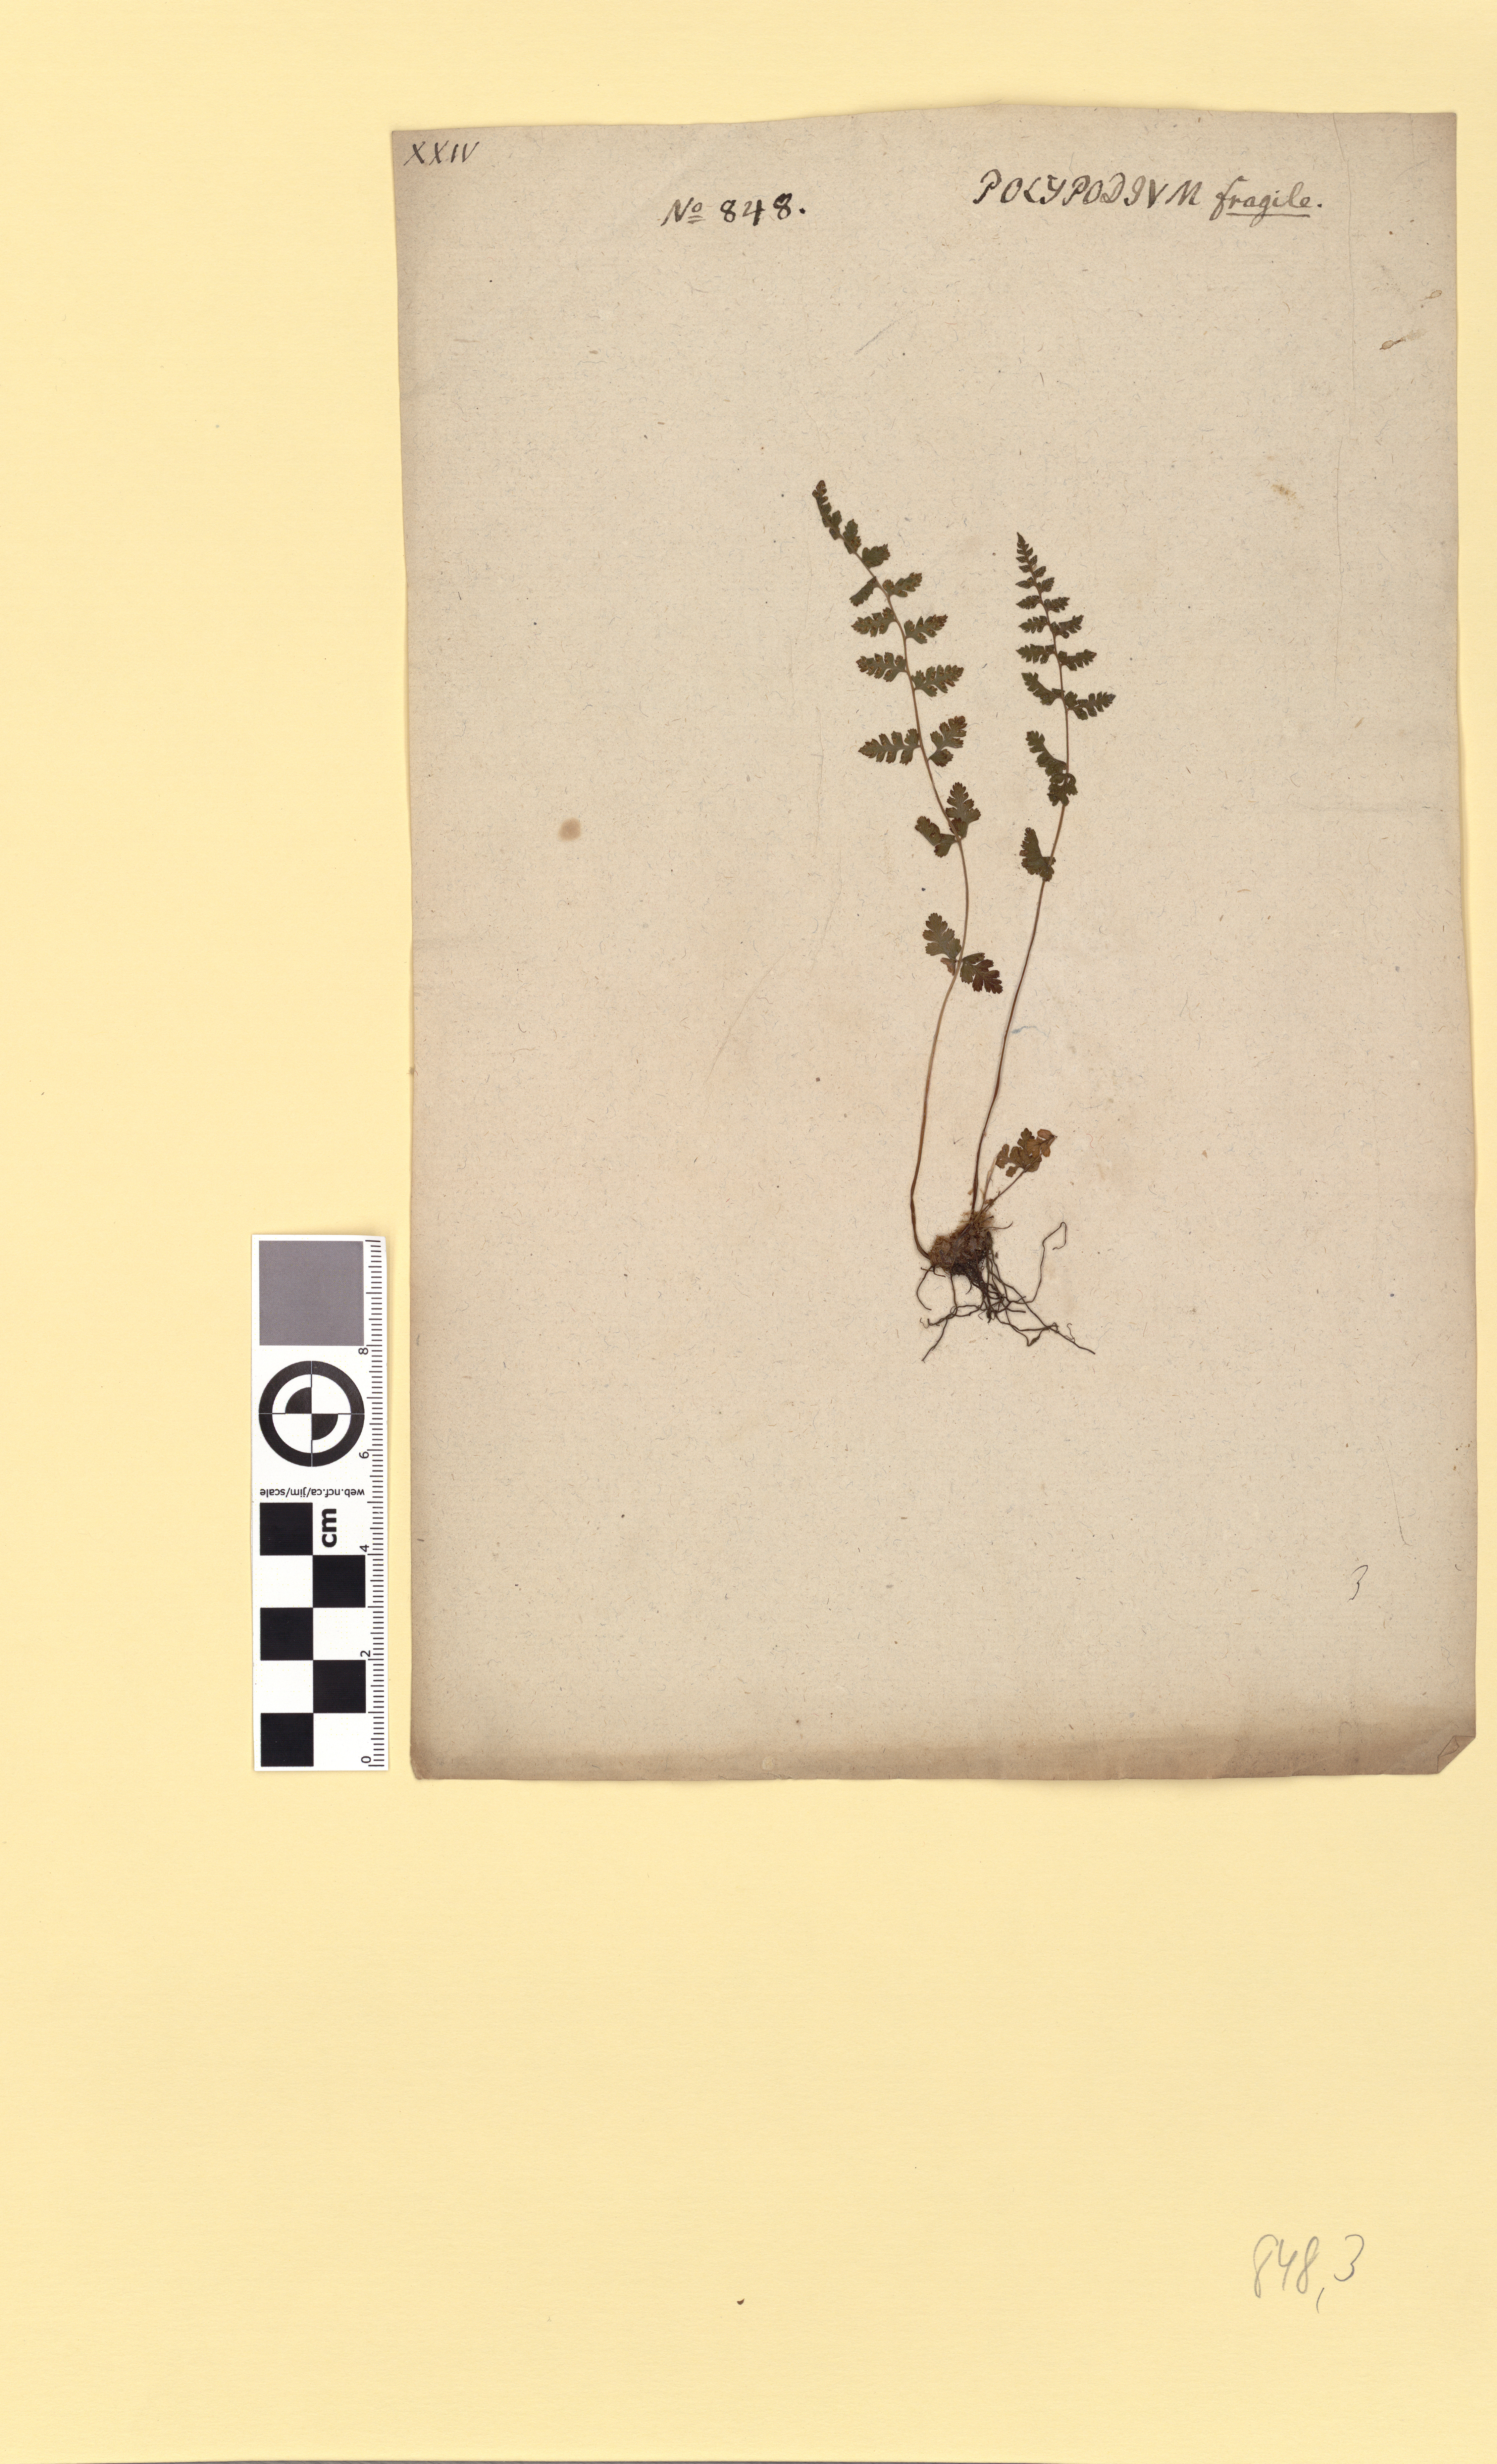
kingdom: Plantae
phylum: Tracheophyta
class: Polypodiopsida
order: Polypodiales
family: Cystopteridaceae
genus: Cystopteris
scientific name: Cystopteris fragilis
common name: Brittle bladder fern
